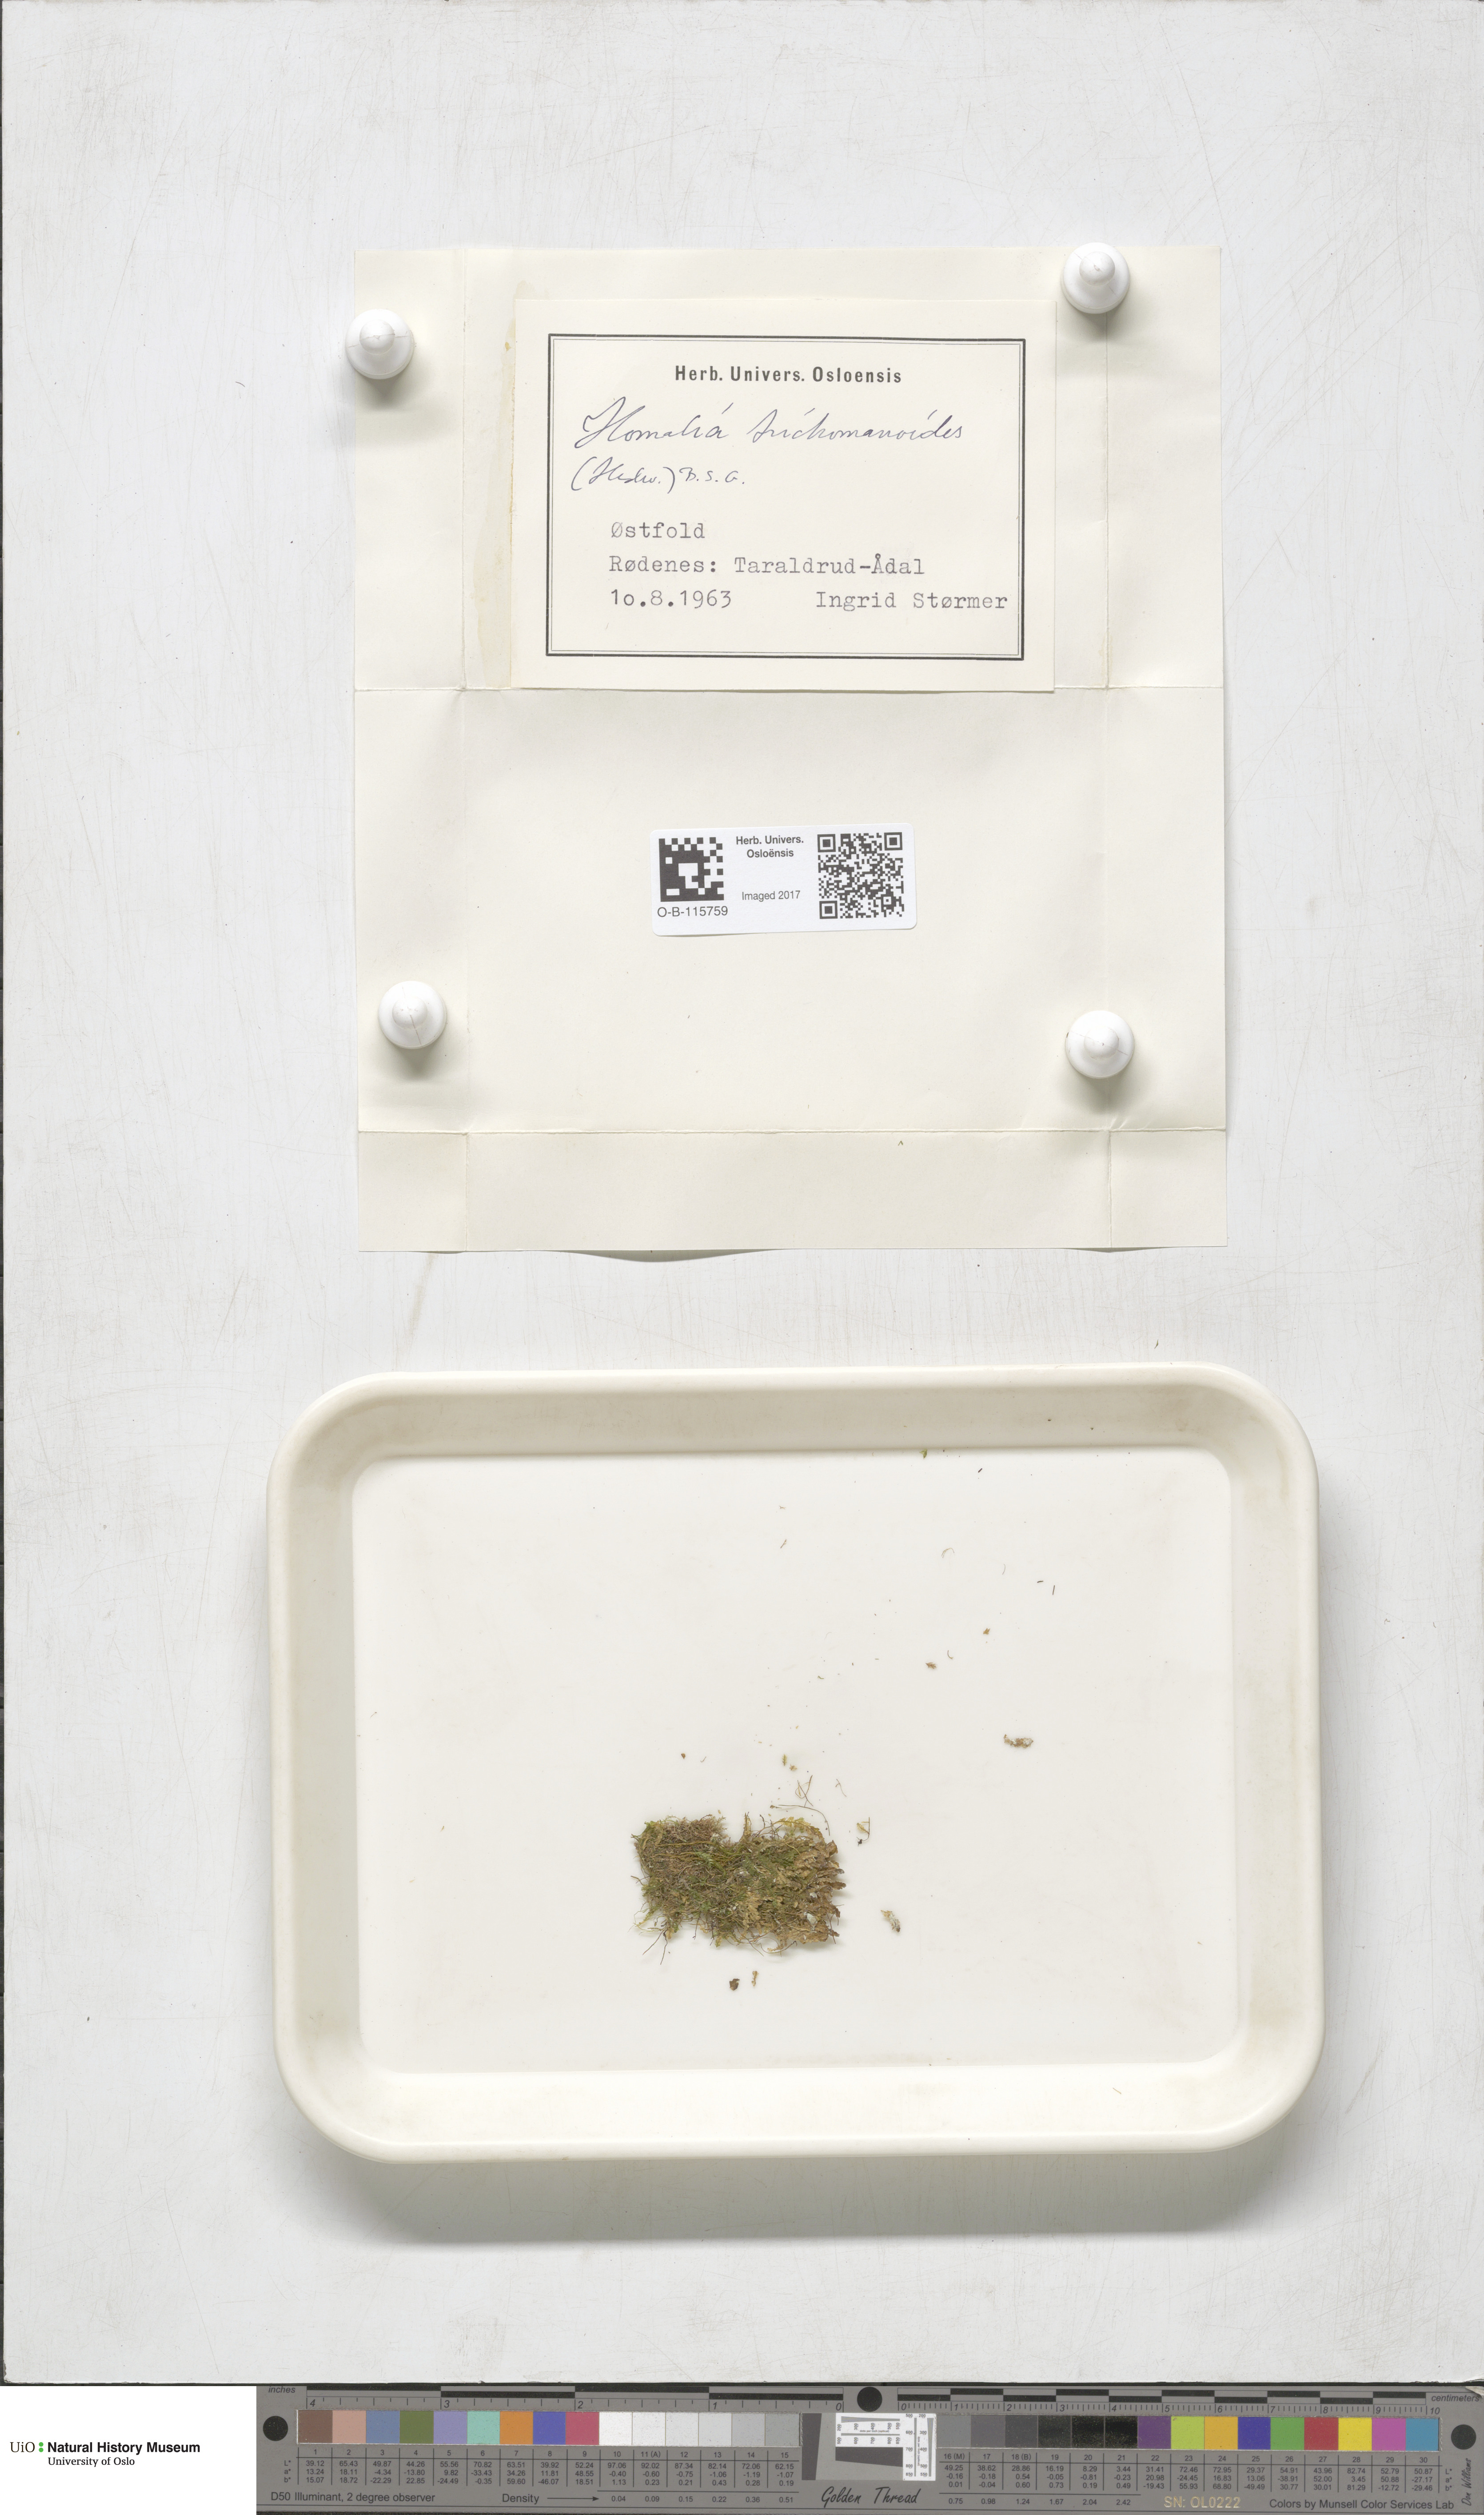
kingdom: Plantae
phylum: Bryophyta
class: Bryopsida
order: Hypnales
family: Neckeraceae
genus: Homalia
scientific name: Homalia trichomanoides
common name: Lime homalia moss
